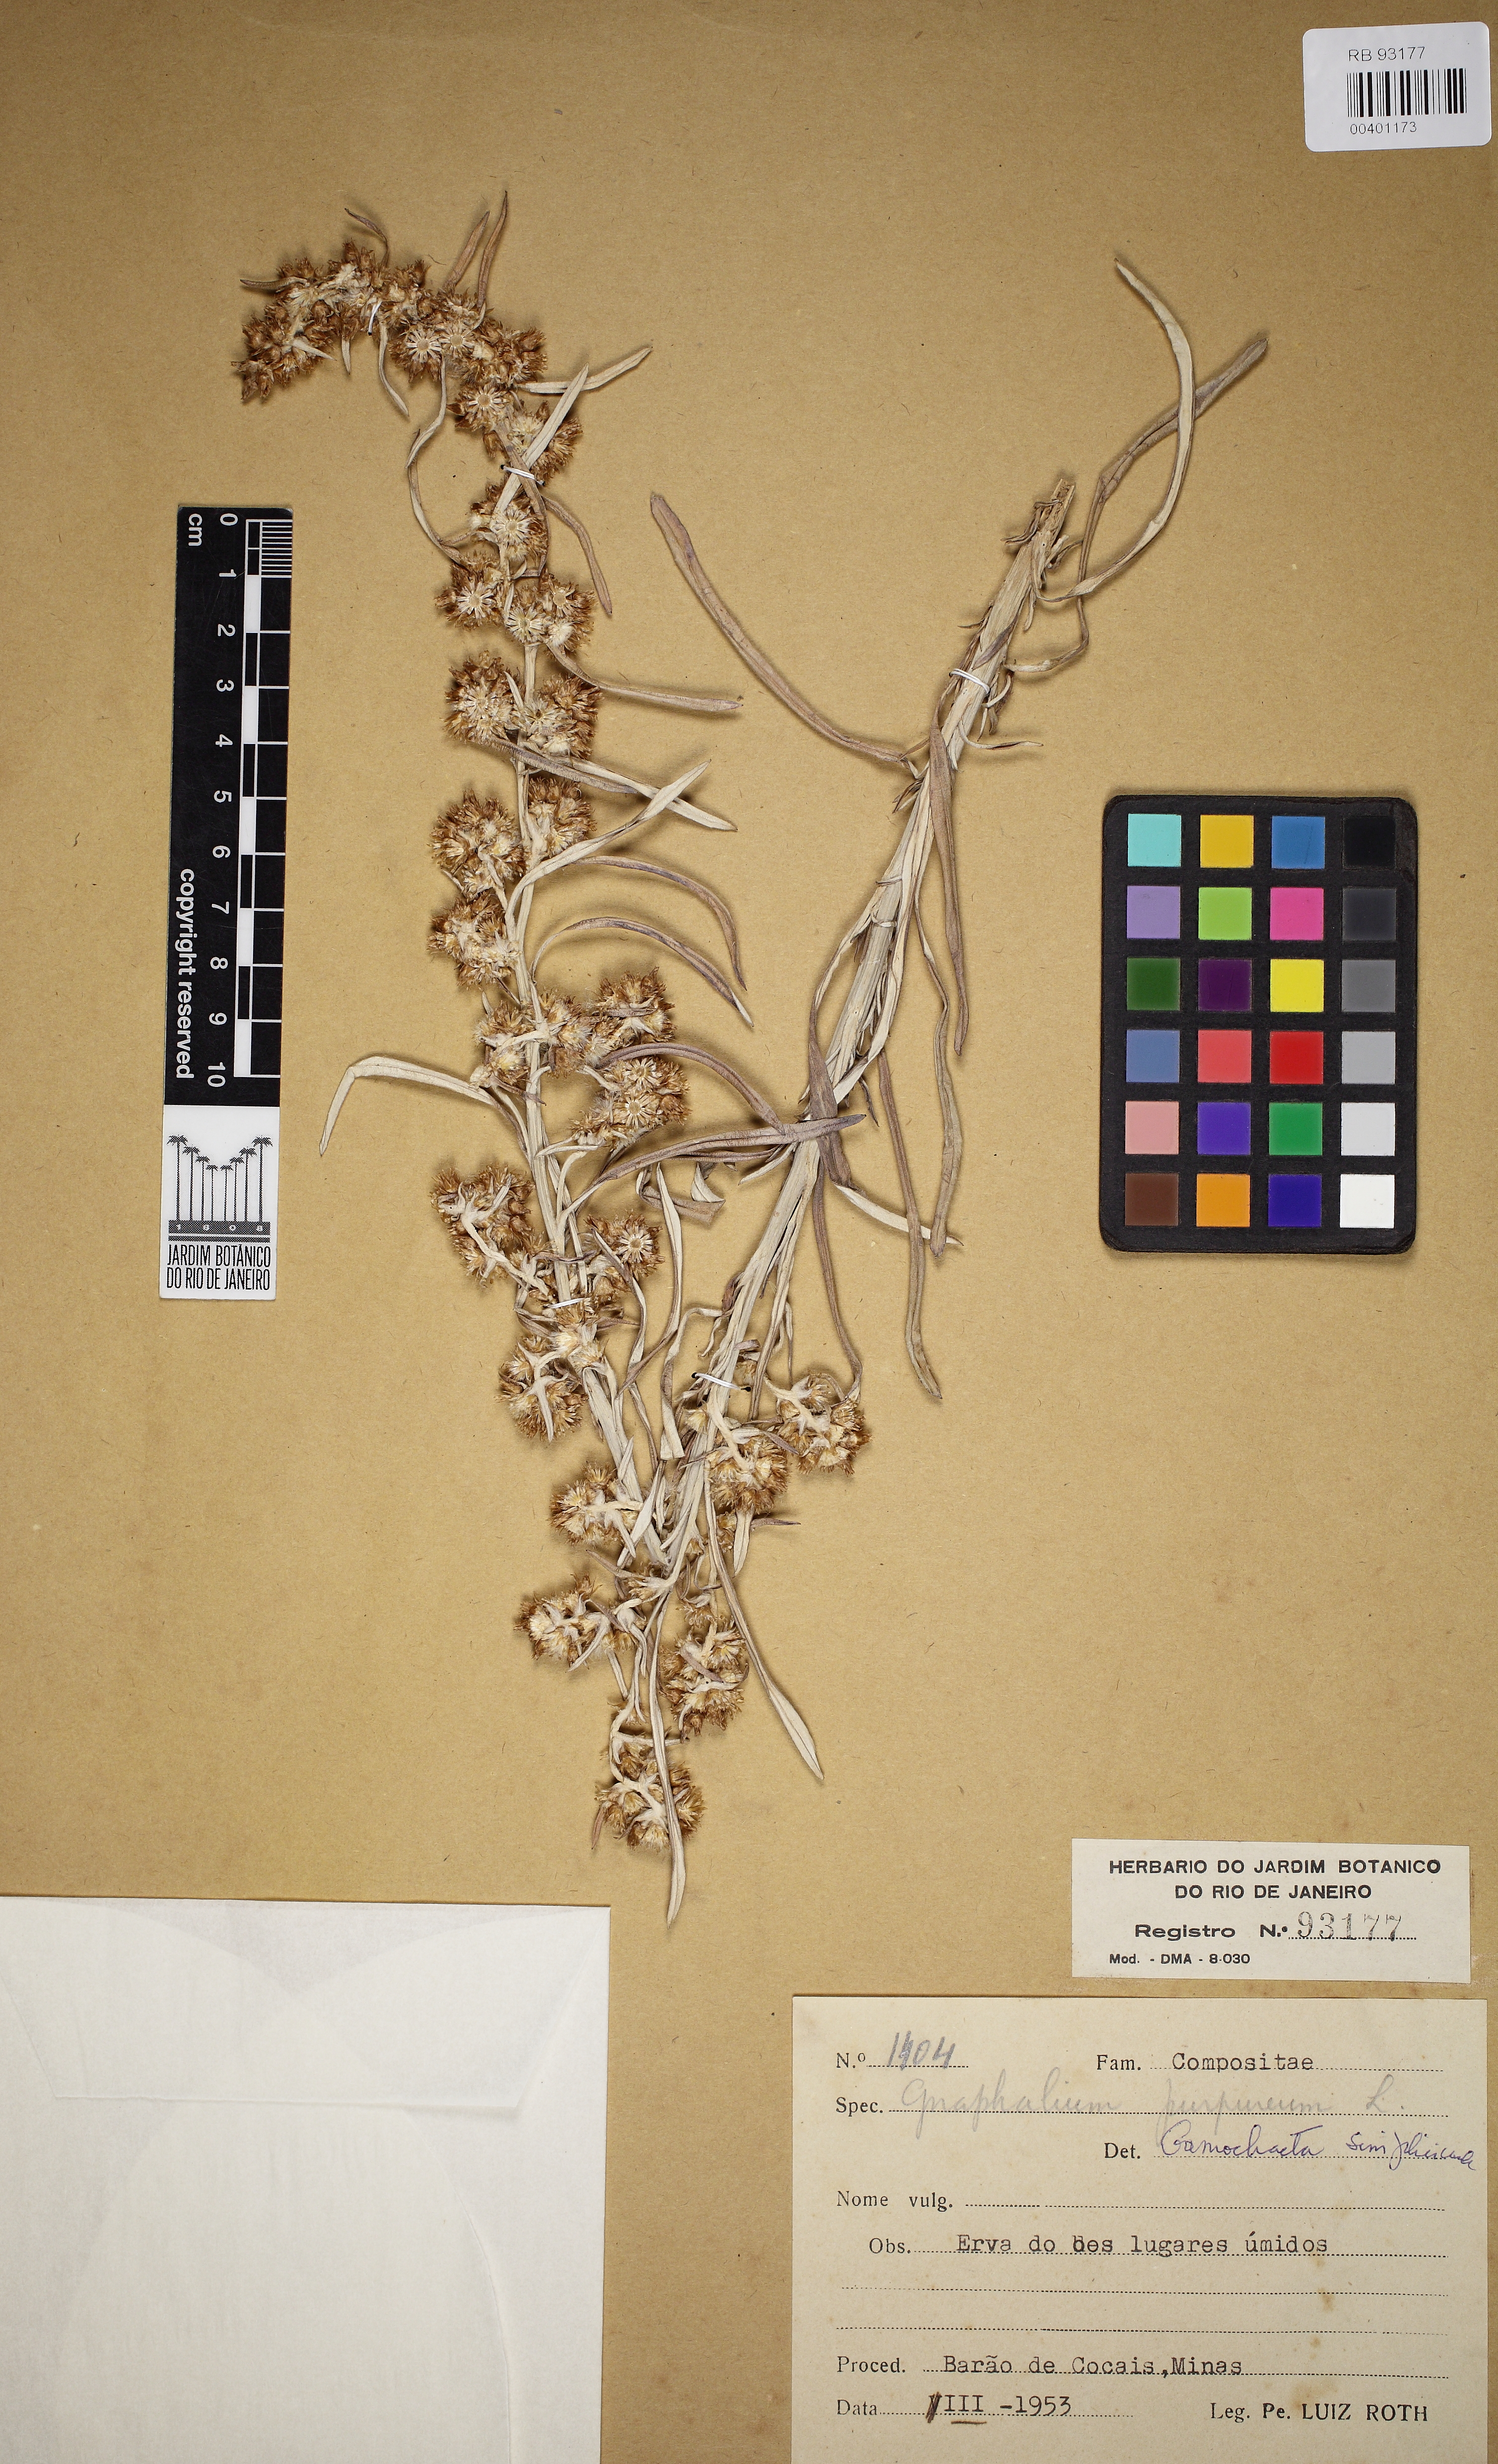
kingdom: Plantae
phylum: Tracheophyta
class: Magnoliopsida
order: Asterales
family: Asteraceae
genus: Gamochaeta
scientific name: Gamochaeta simplicicaulis
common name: Simple-stem everlasting
